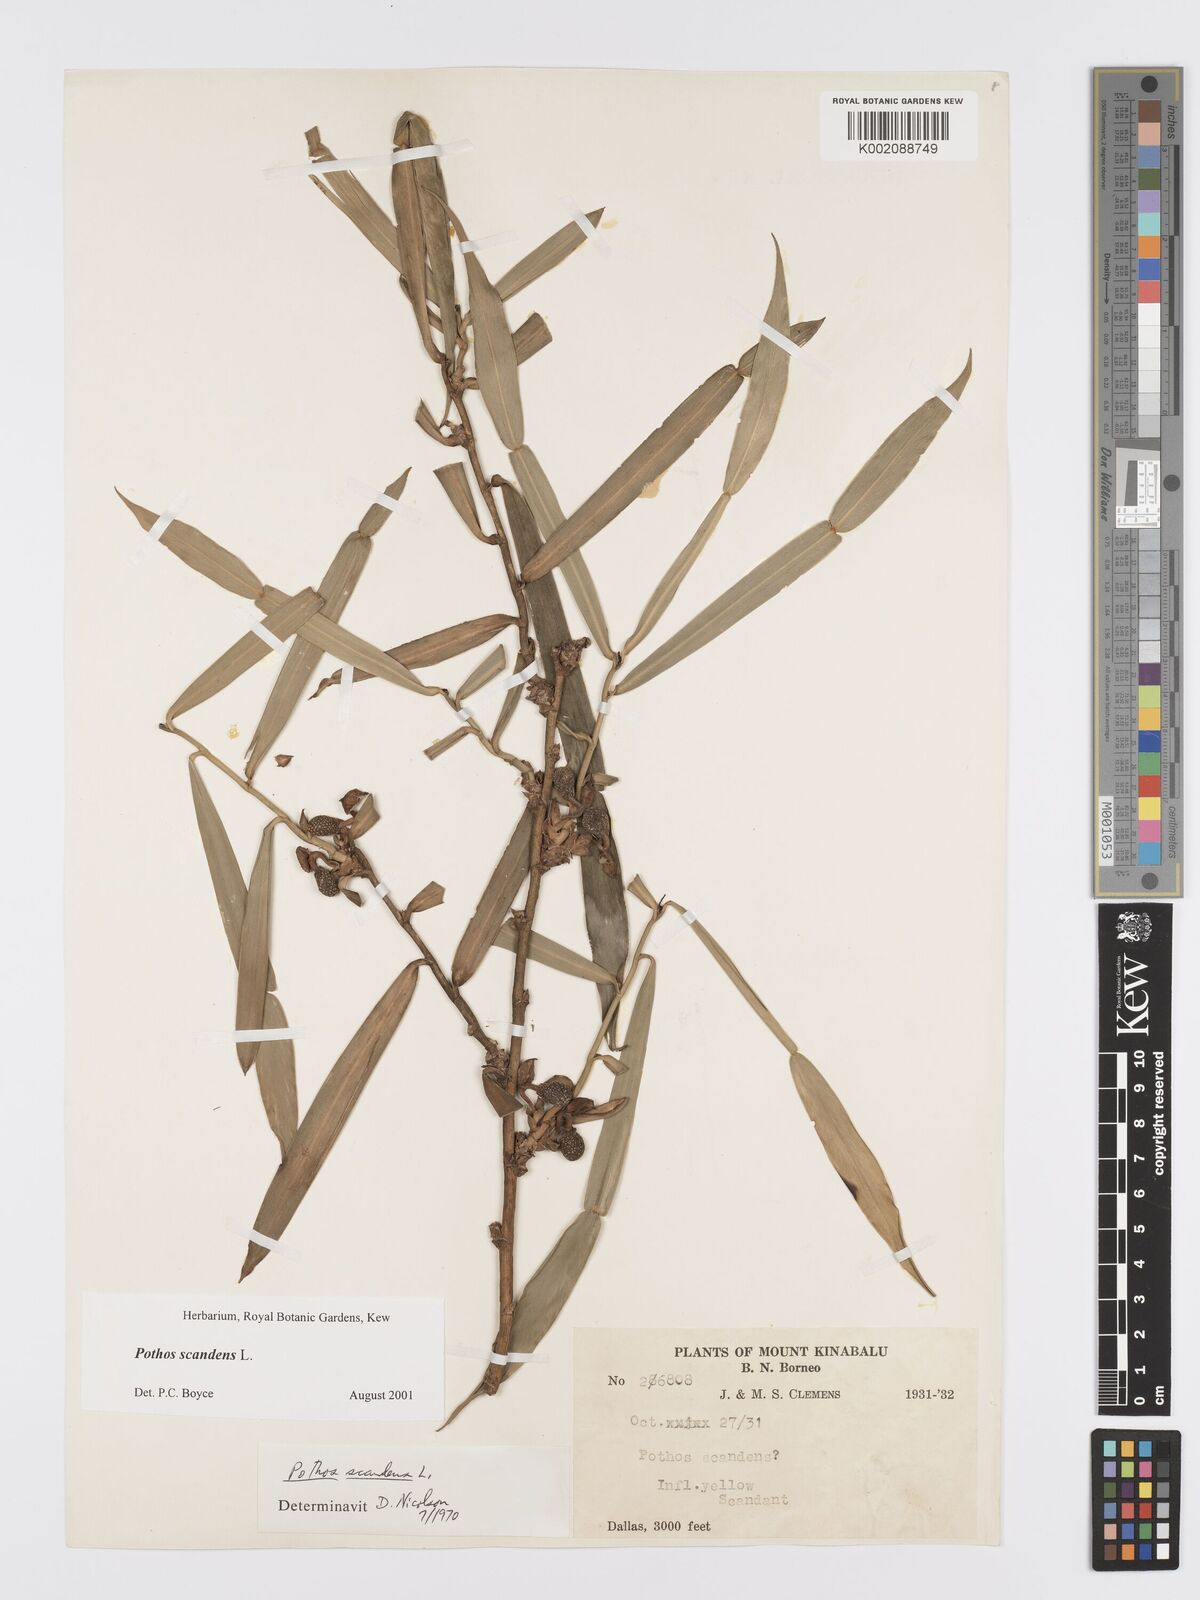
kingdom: Plantae
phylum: Tracheophyta
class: Liliopsida
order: Alismatales
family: Araceae
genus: Pothos
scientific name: Pothos scandens
